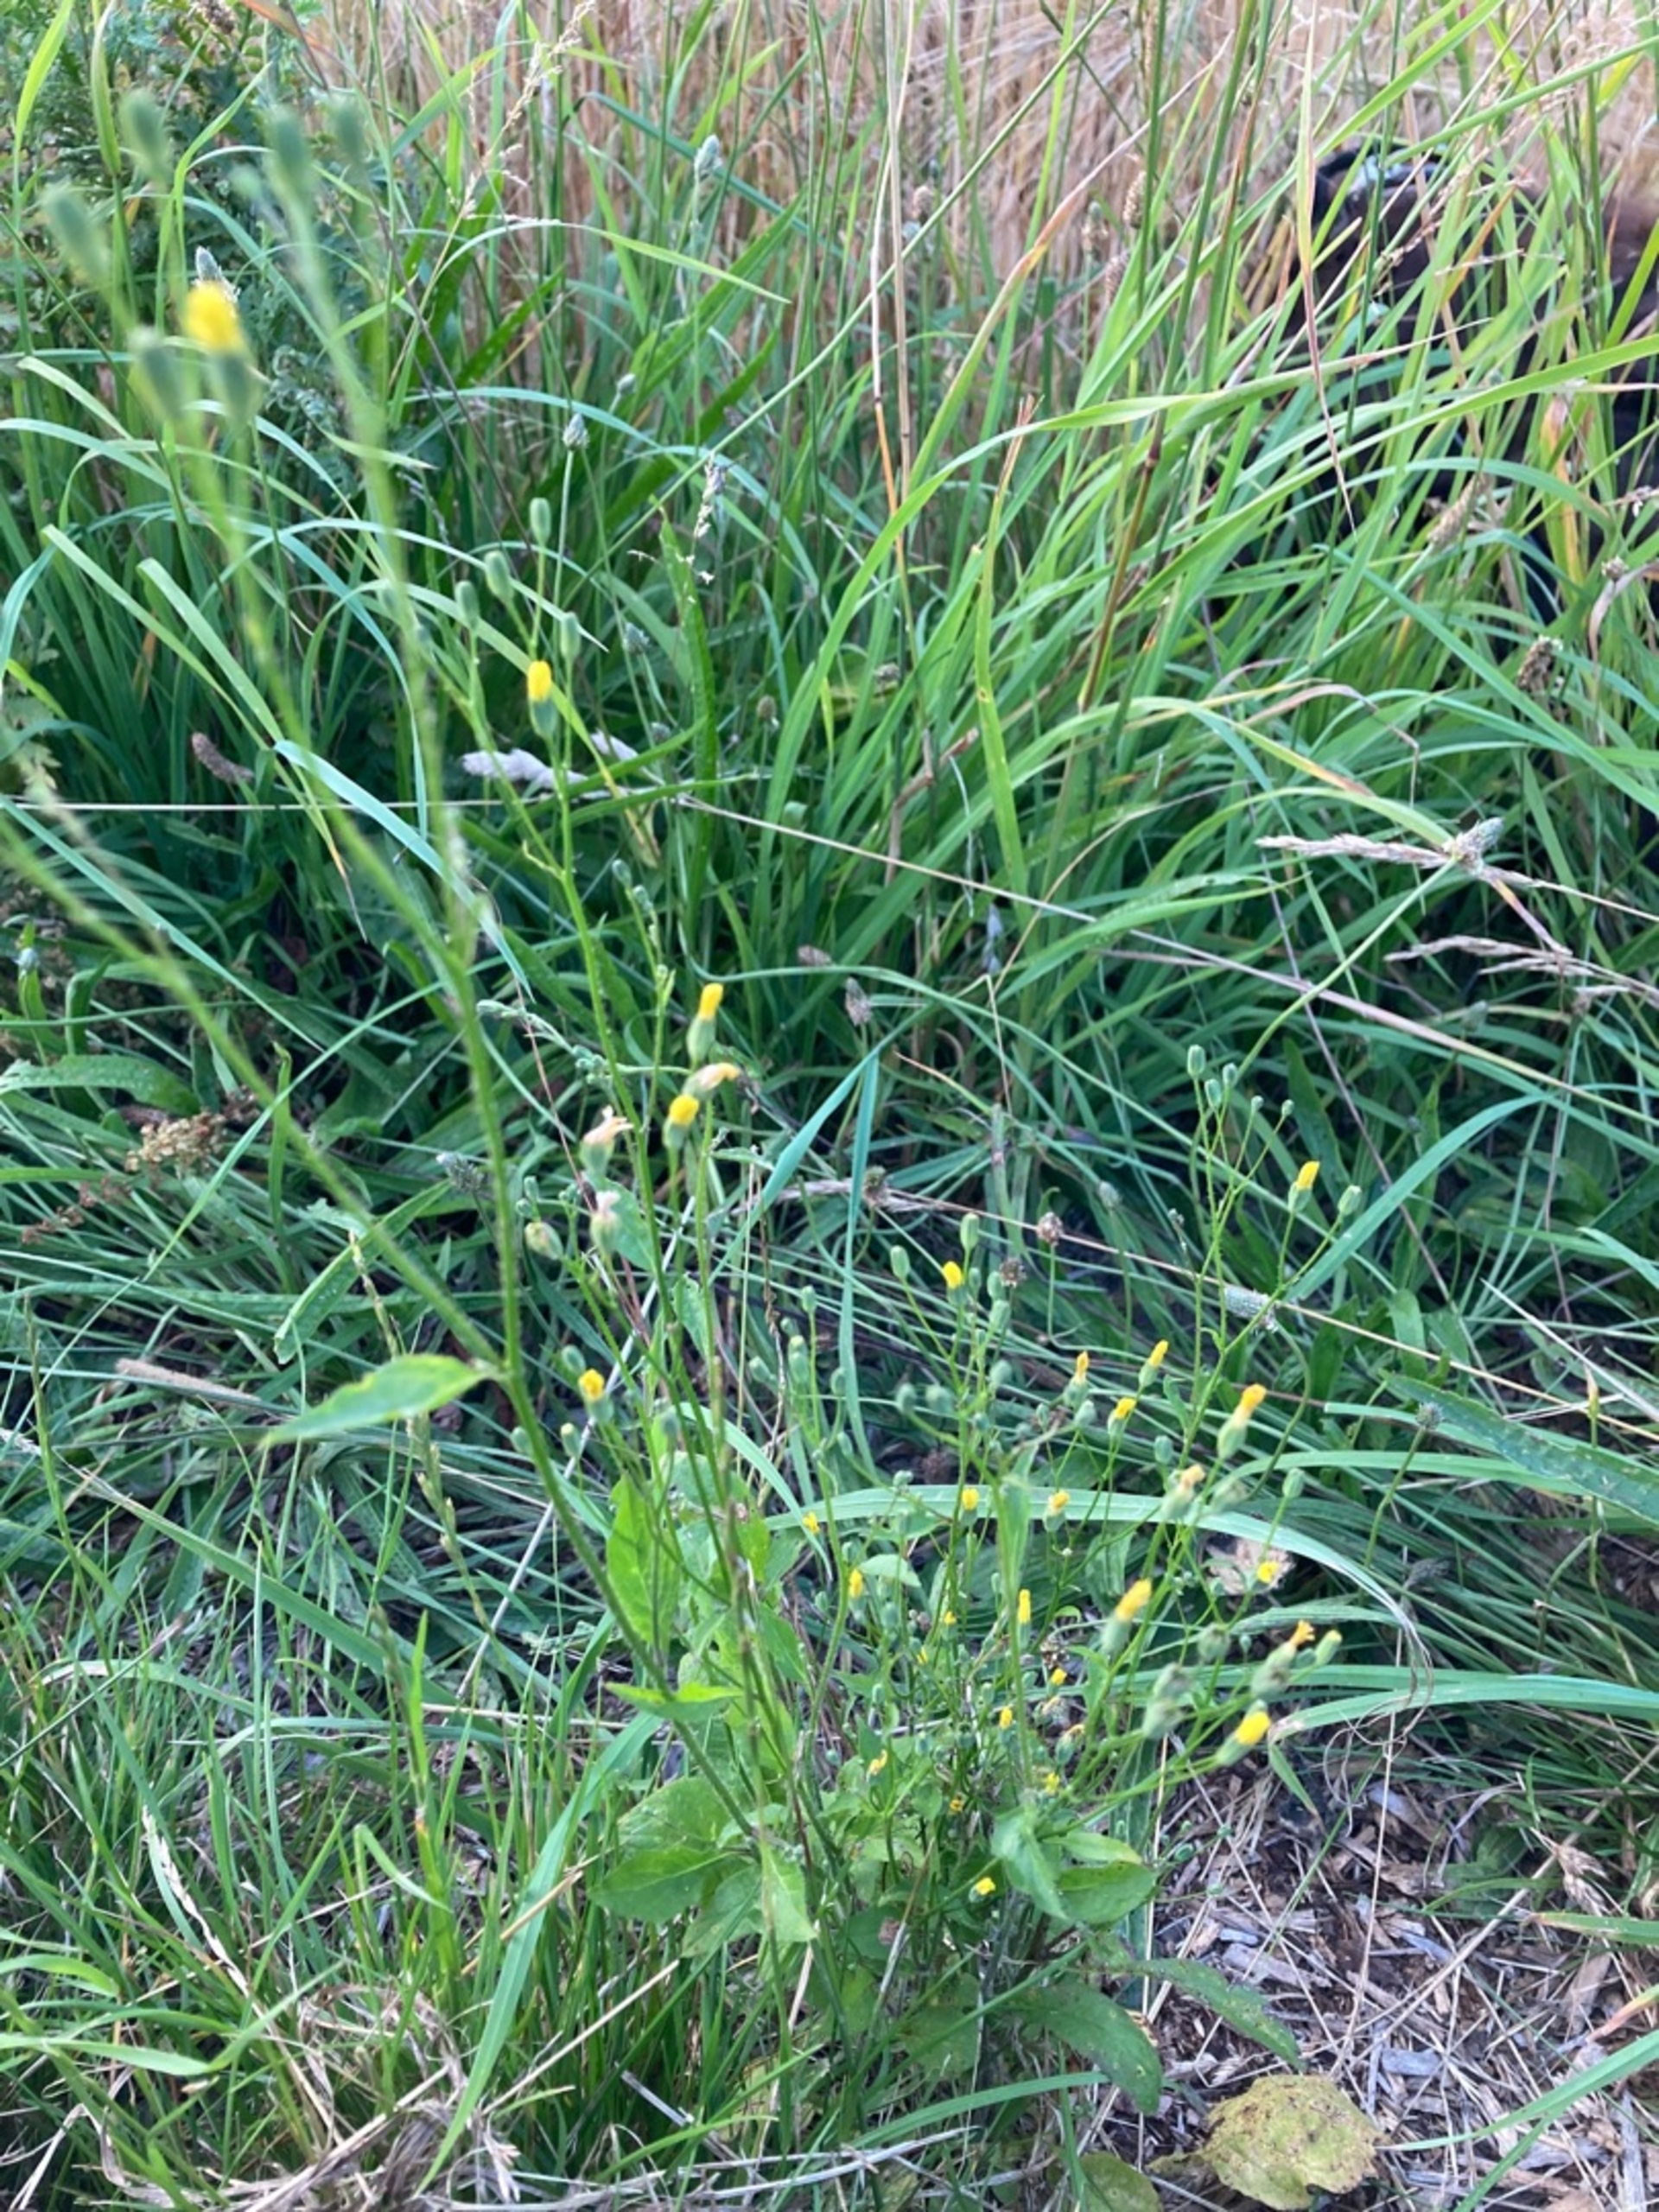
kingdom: Plantae
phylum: Tracheophyta
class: Magnoliopsida
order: Asterales
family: Asteraceae
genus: Lapsana
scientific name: Lapsana communis
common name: Haremad
